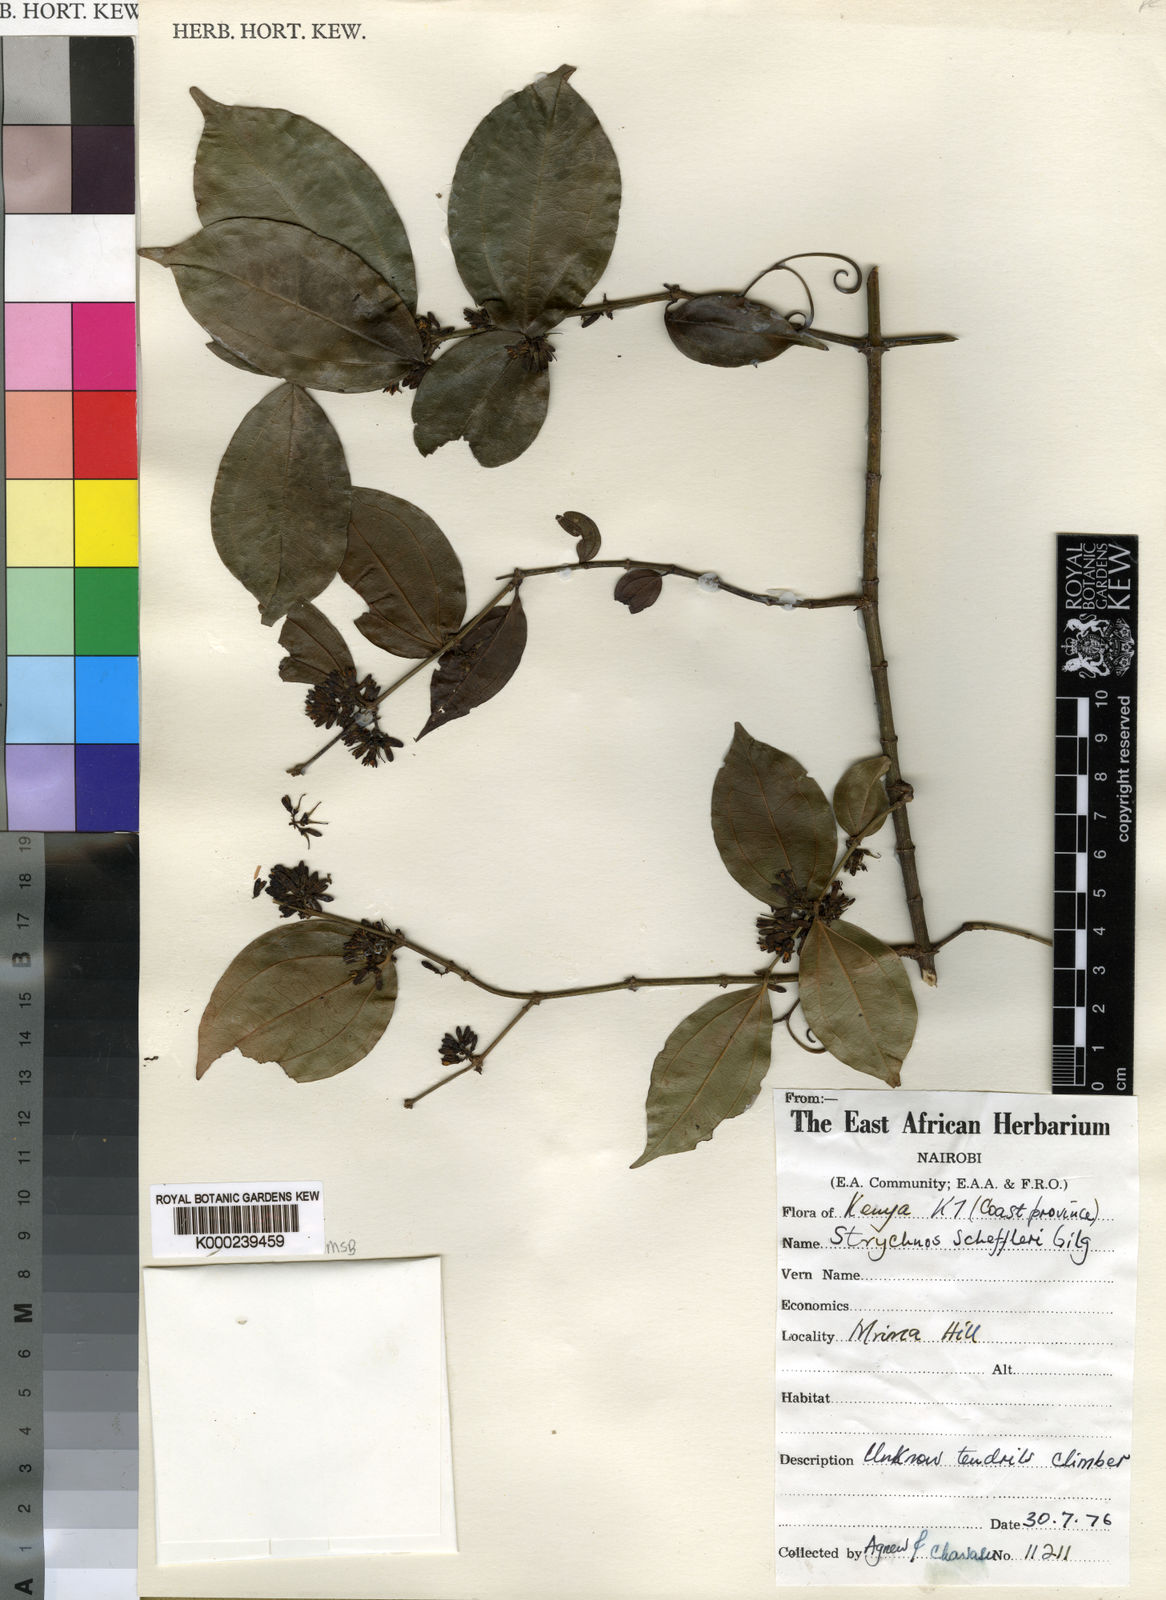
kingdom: Plantae
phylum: Tracheophyta
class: Magnoliopsida
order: Gentianales
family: Loganiaceae
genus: Strychnos
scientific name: Strychnos scheffleri
